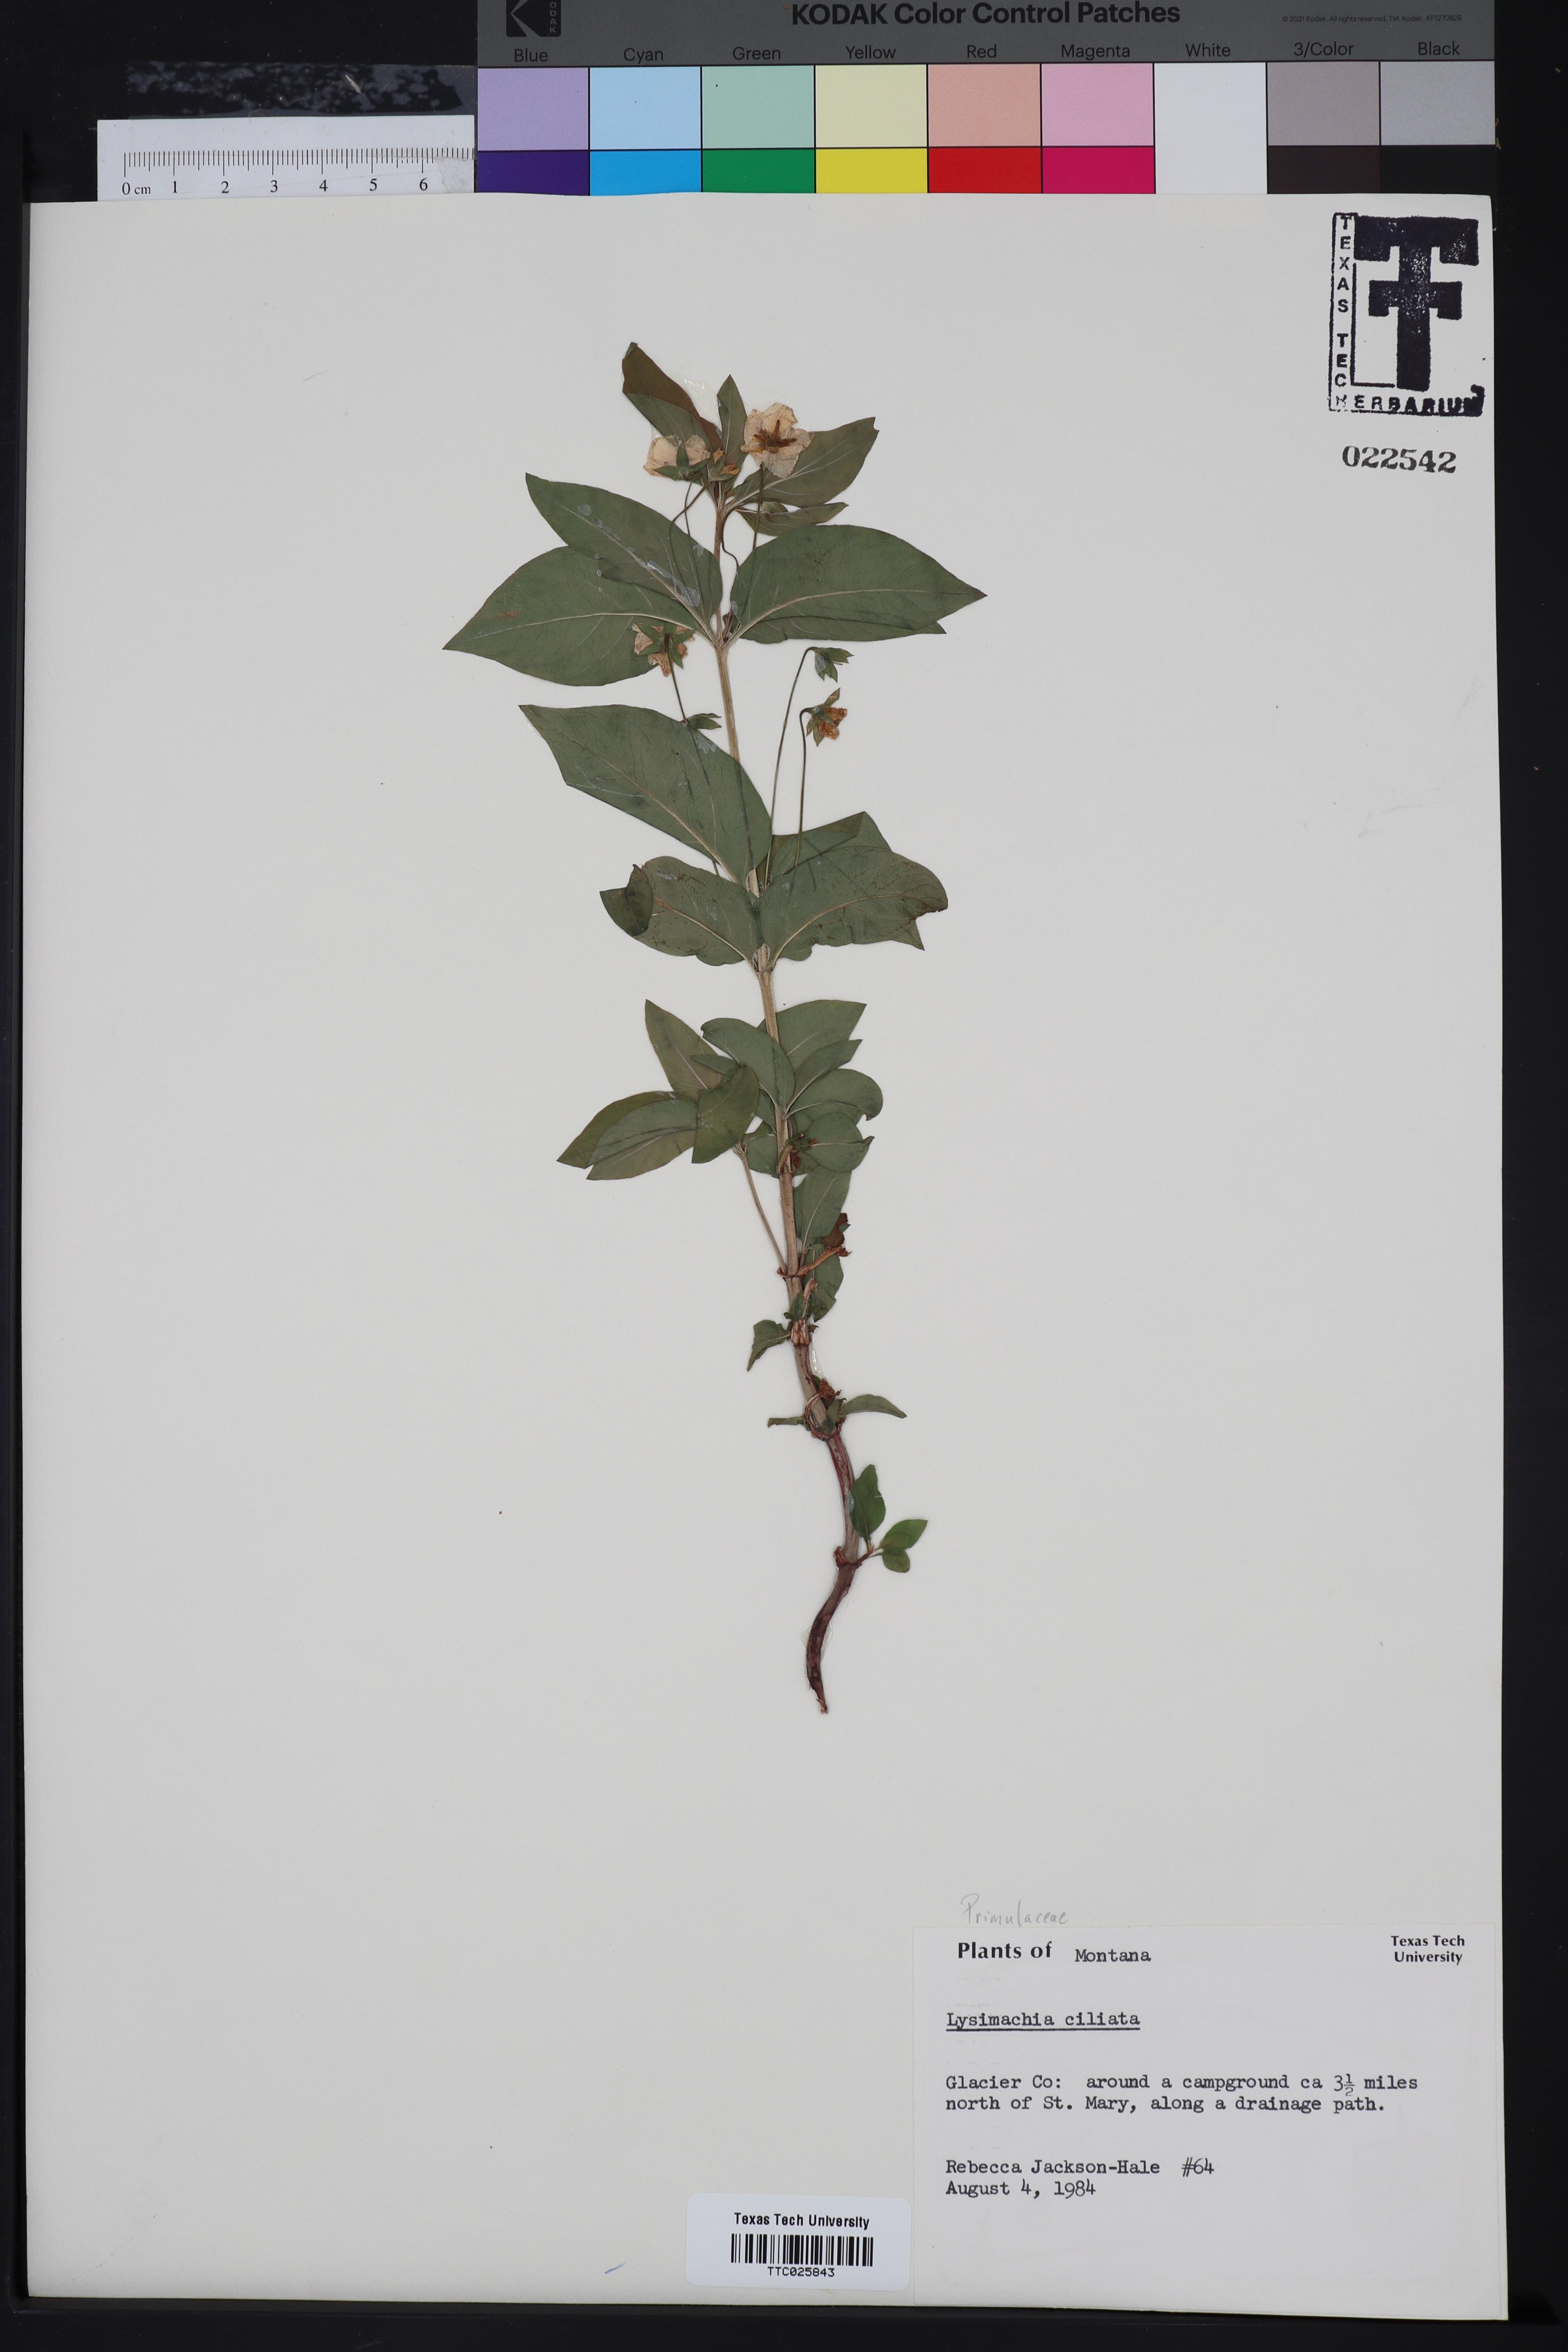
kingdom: Plantae
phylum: Tracheophyta
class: Magnoliopsida
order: Ericales
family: Primulaceae
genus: Lysimachia
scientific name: Lysimachia ciliata
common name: Fringed loosestrife
